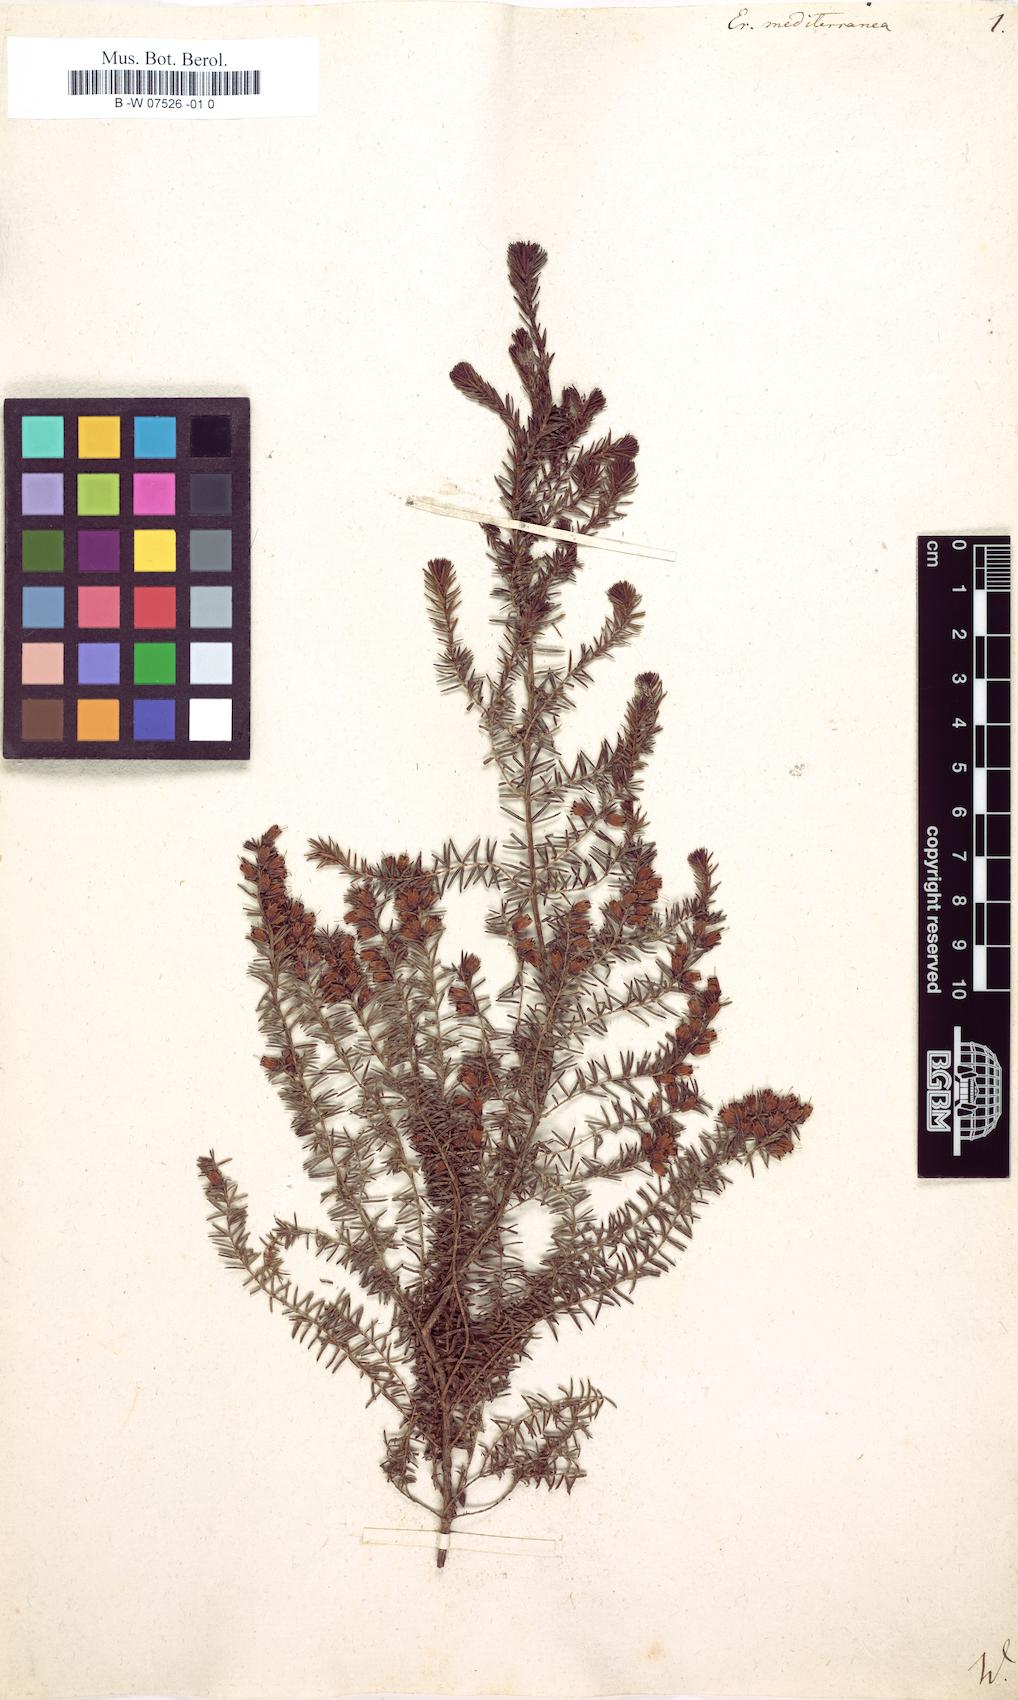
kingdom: Plantae
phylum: Tracheophyta
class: Magnoliopsida
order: Ericales
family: Ericaceae
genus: Erica
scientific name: Erica
